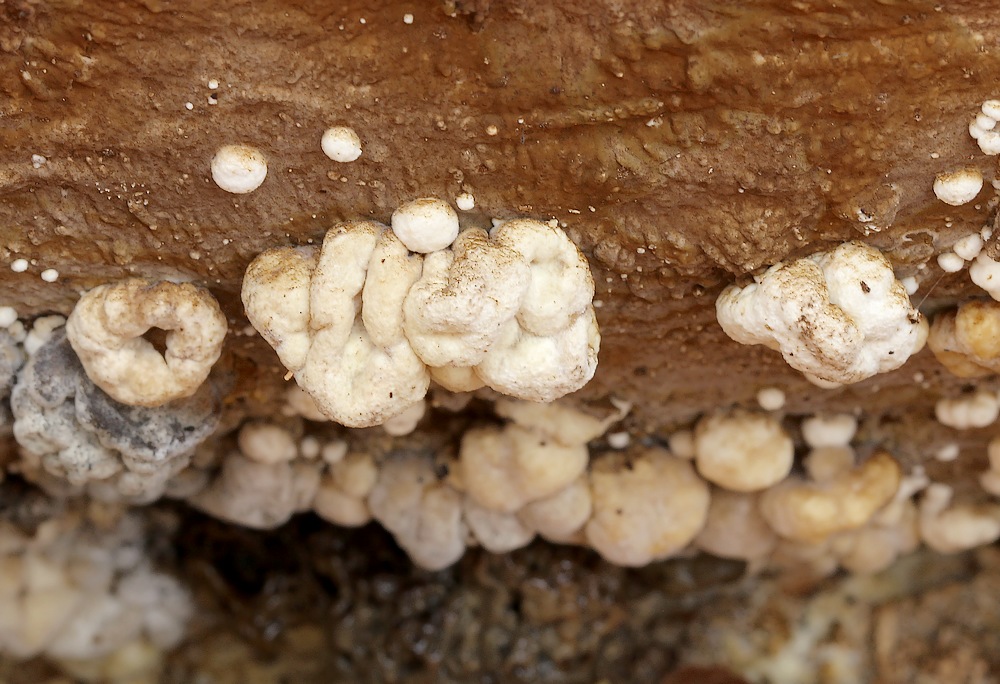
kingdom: Fungi
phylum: Ascomycota
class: Sordariomycetes
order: Xylariales
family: Hypoxylaceae
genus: Nodulisporium
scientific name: Nodulisporium cecidiogenes
